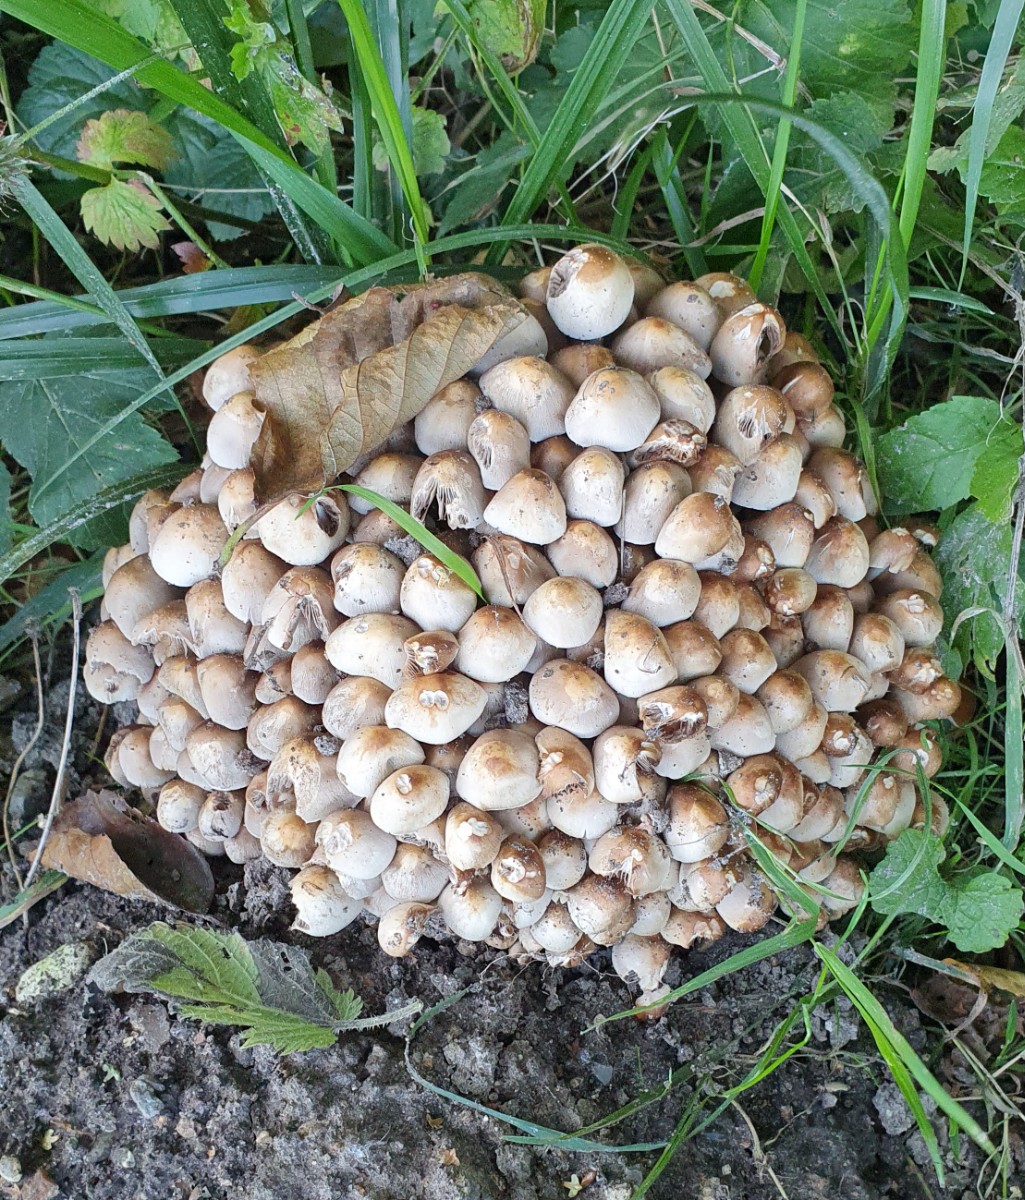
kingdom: Fungi
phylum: Basidiomycota
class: Agaricomycetes
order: Agaricales
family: Psathyrellaceae
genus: Britzelmayria
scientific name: Britzelmayria multipedata
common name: knippe-mørkhat
